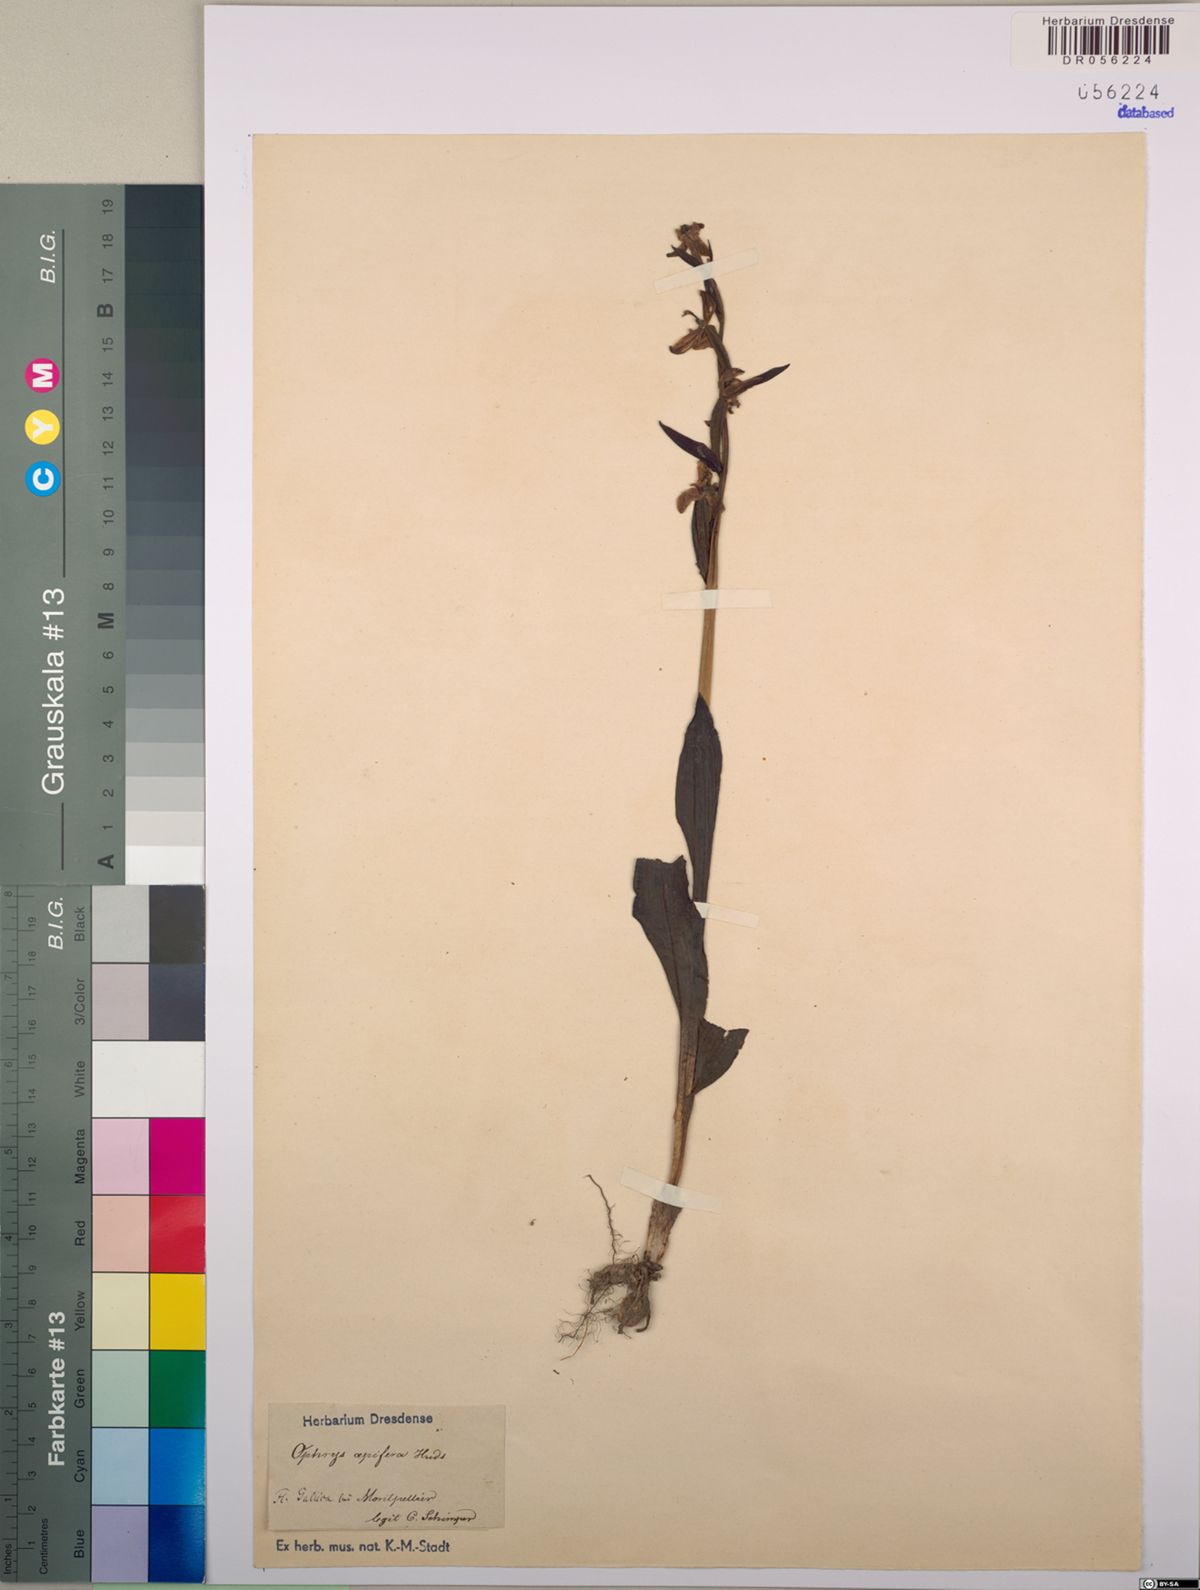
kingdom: Plantae
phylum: Tracheophyta
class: Liliopsida
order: Asparagales
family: Orchidaceae
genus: Ophrys
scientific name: Ophrys apifera
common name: Bee orchid
